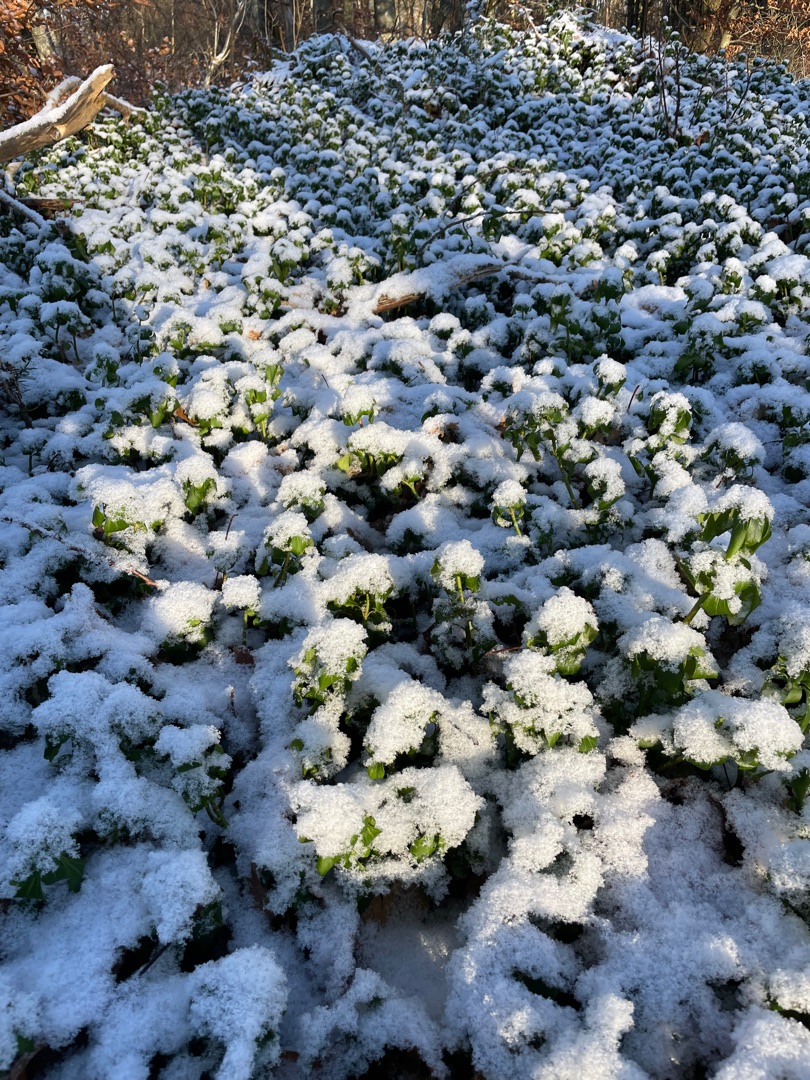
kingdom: Plantae
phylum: Tracheophyta
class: Magnoliopsida
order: Buxales
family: Buxaceae
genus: Pachysandra
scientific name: Pachysandra terminalis
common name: Vinterglans
